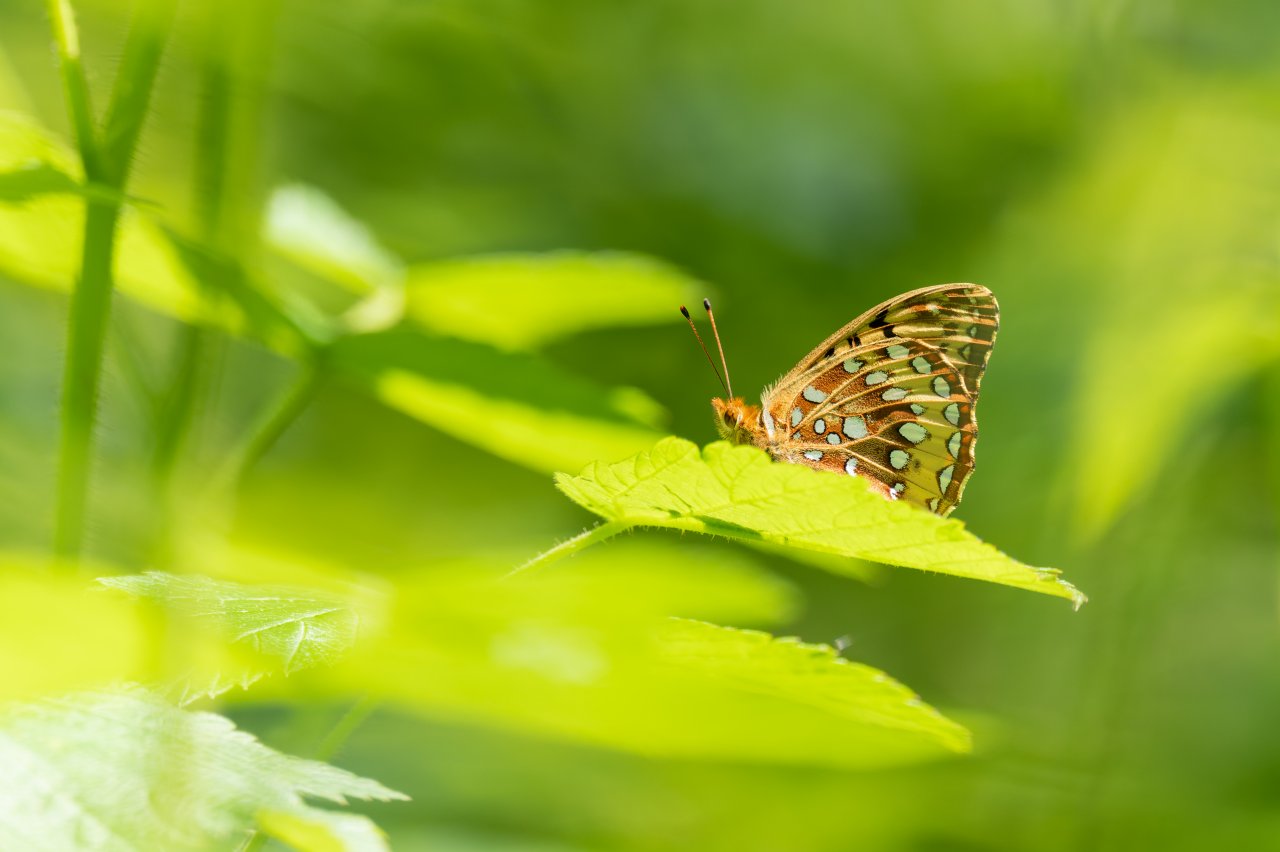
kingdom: Animalia
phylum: Arthropoda
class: Insecta
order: Lepidoptera
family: Nymphalidae
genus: Speyeria
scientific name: Speyeria cybele
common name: Great Spangled Fritillary
